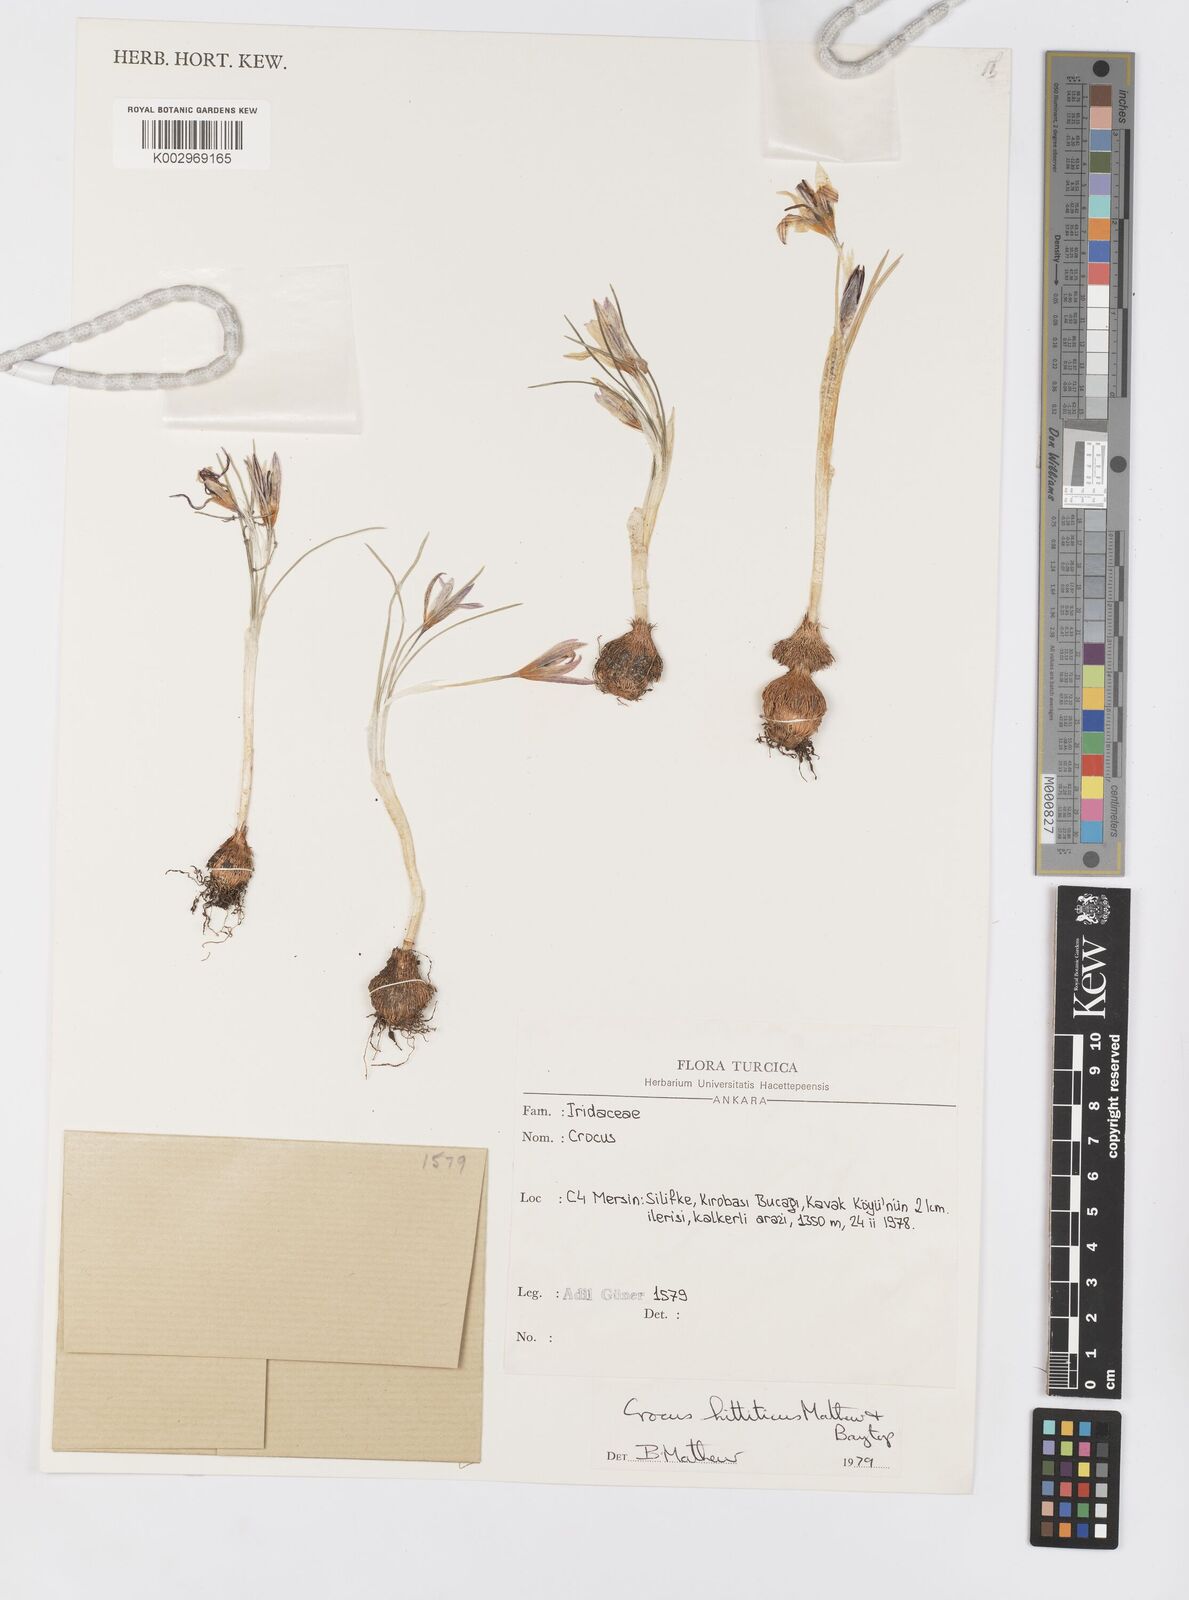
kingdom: Plantae
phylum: Tracheophyta
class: Liliopsida
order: Asparagales
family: Iridaceae
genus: Crocus
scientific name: Crocus hittiticus
